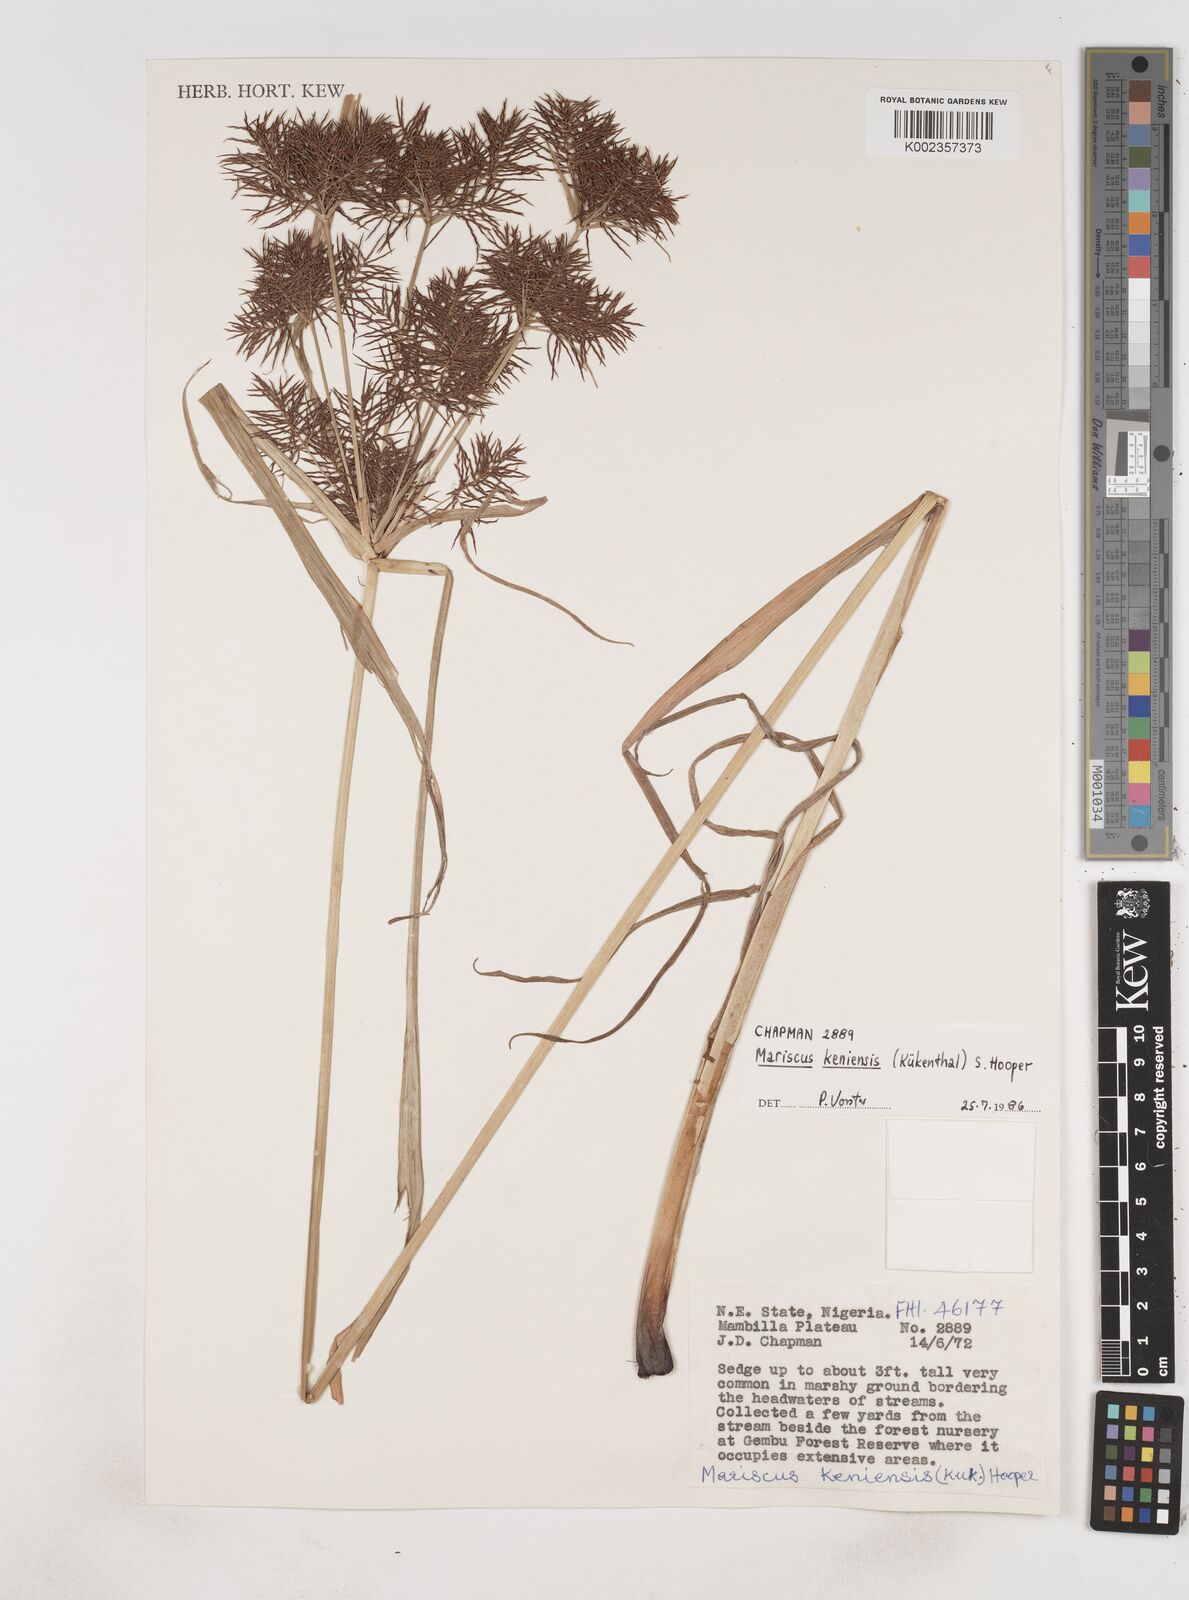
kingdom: Plantae
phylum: Tracheophyta
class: Liliopsida
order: Poales
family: Cyperaceae
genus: Cyperus
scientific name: Cyperus distans
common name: Slender cyperus
